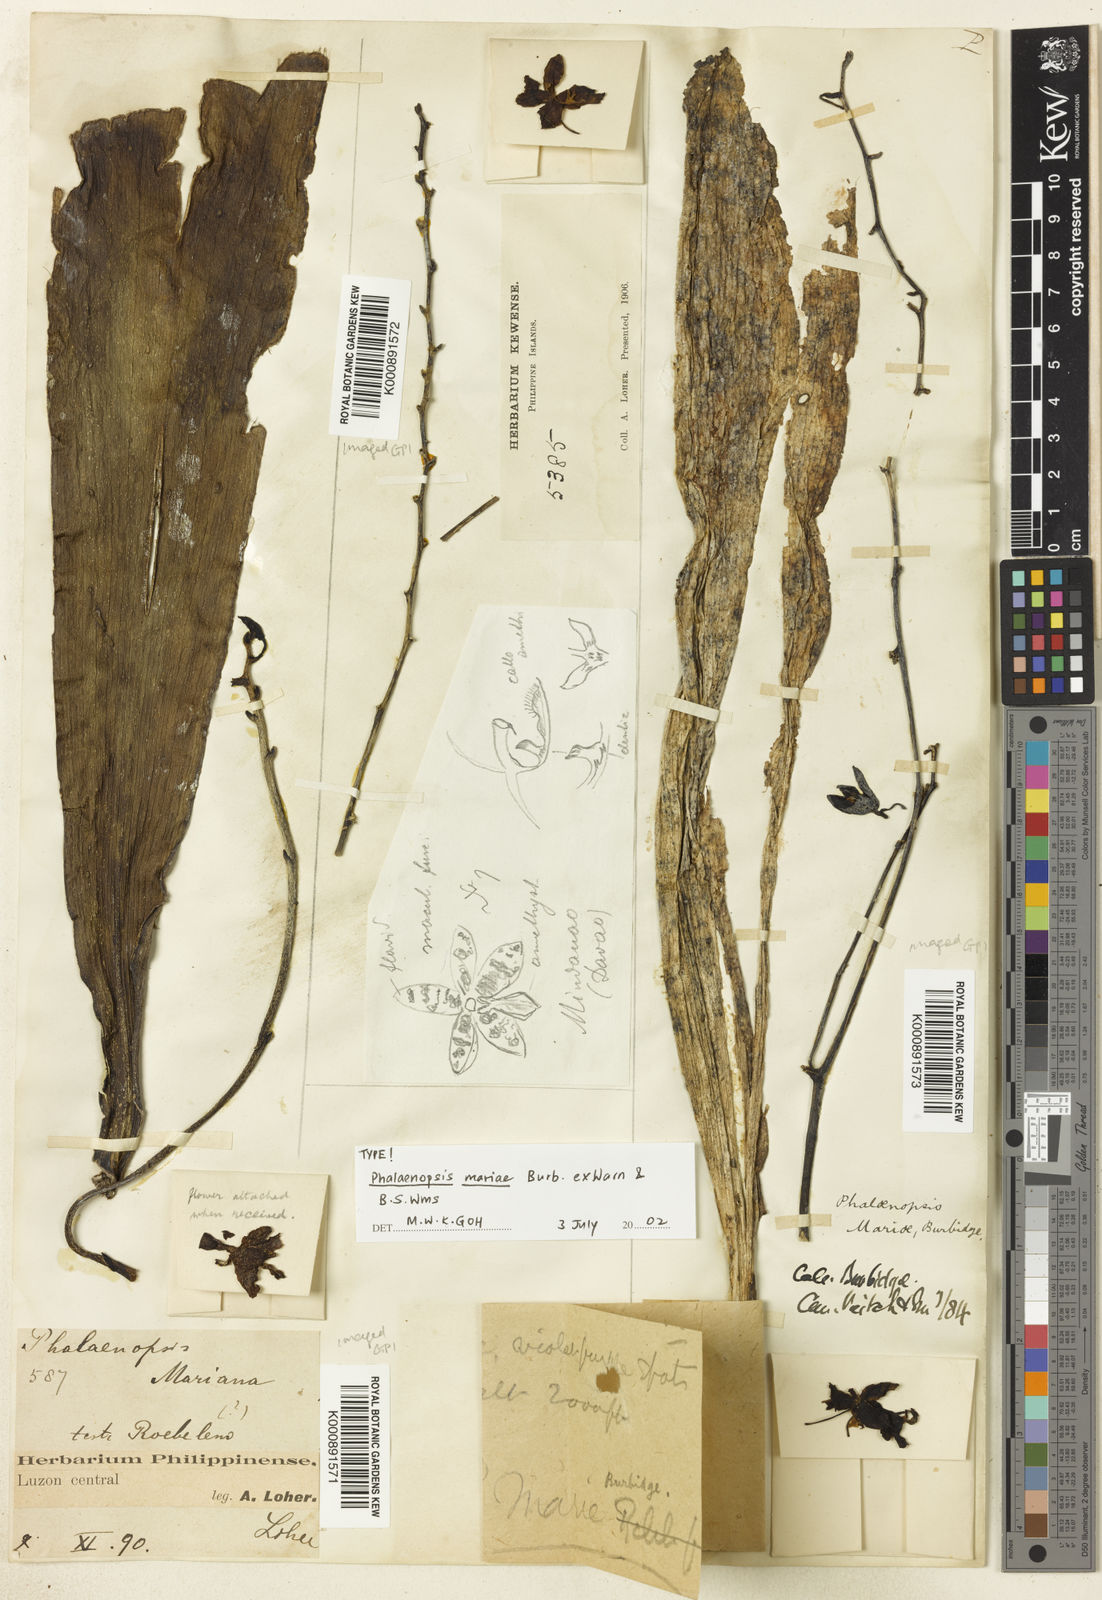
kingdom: Plantae
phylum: Tracheophyta
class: Liliopsida
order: Asparagales
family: Orchidaceae
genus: Phalaenopsis
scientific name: Phalaenopsis mariae
